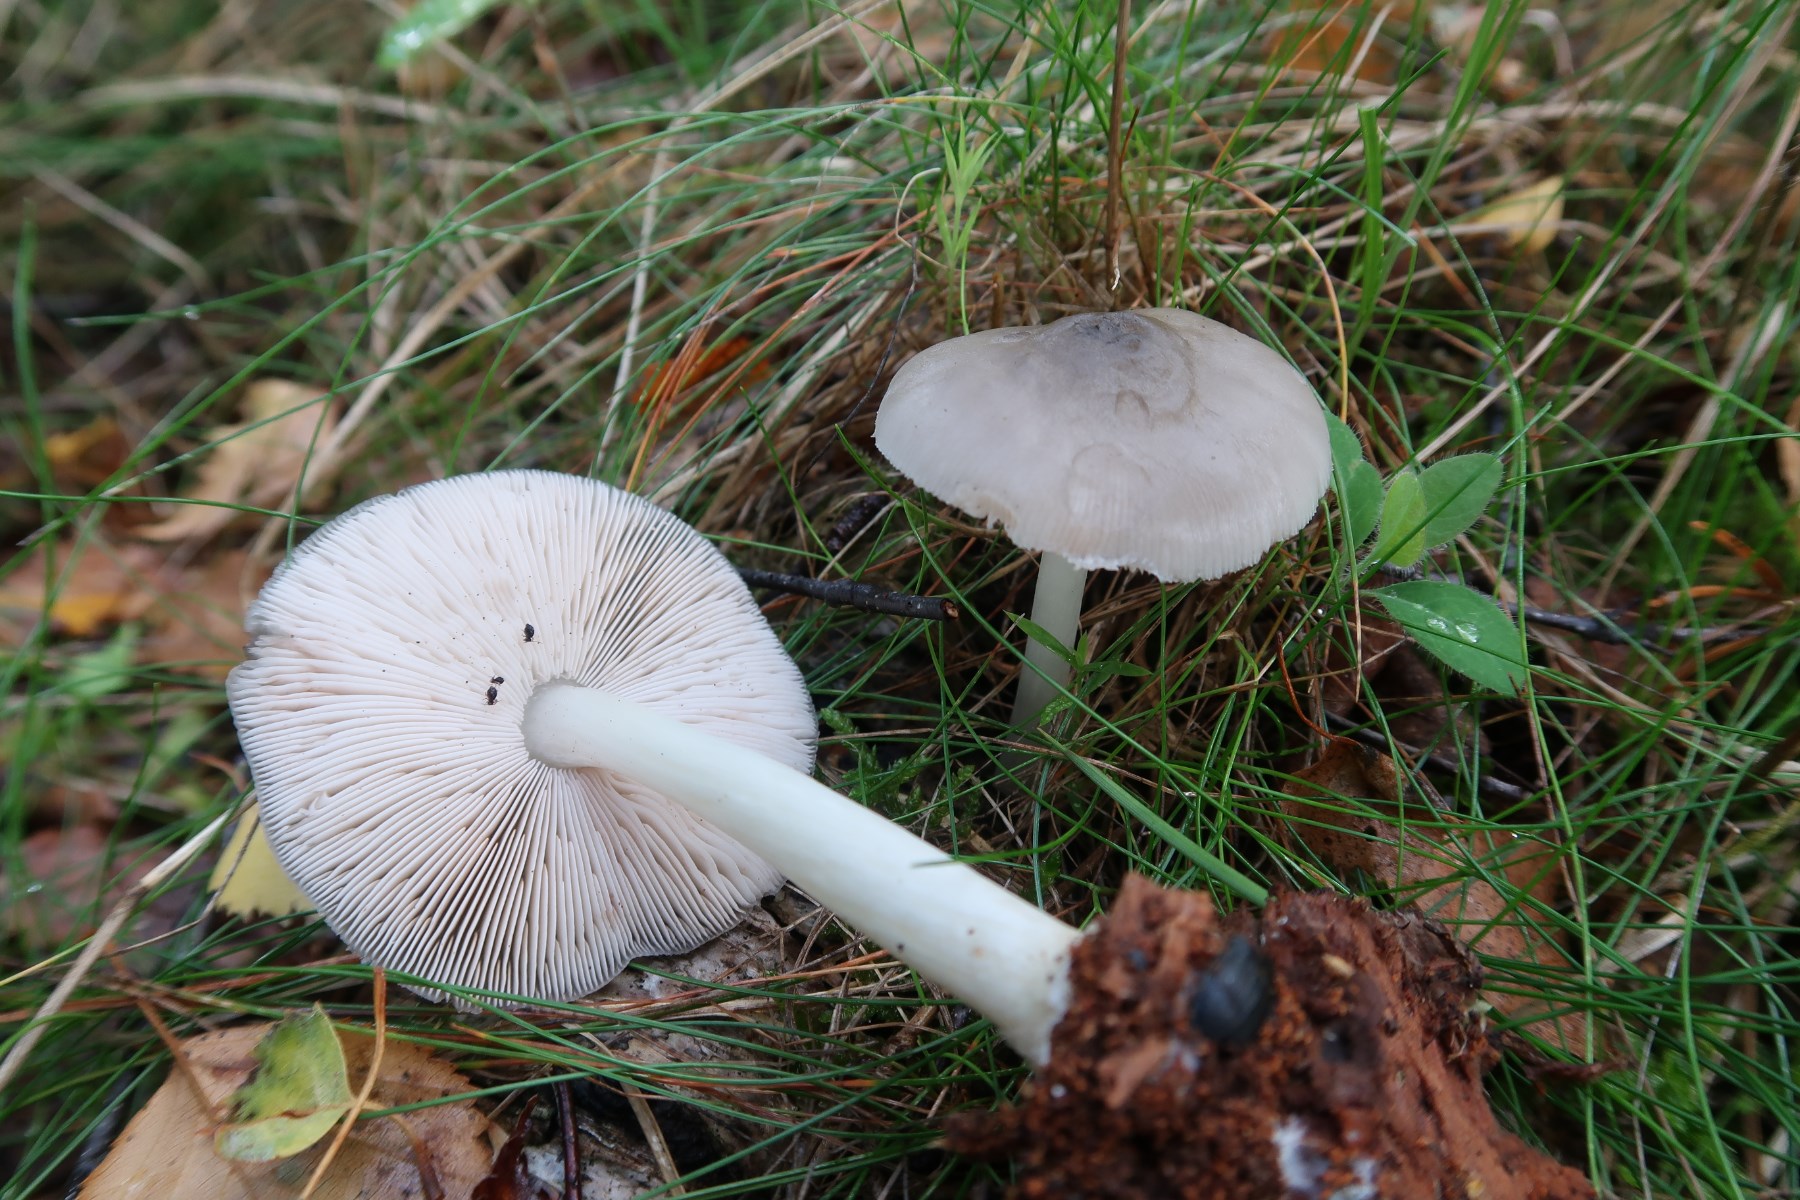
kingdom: Fungi
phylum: Basidiomycota
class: Agaricomycetes
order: Agaricales
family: Pluteaceae
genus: Pluteus
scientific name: Pluteus salicinus
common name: stiv skærmhat
